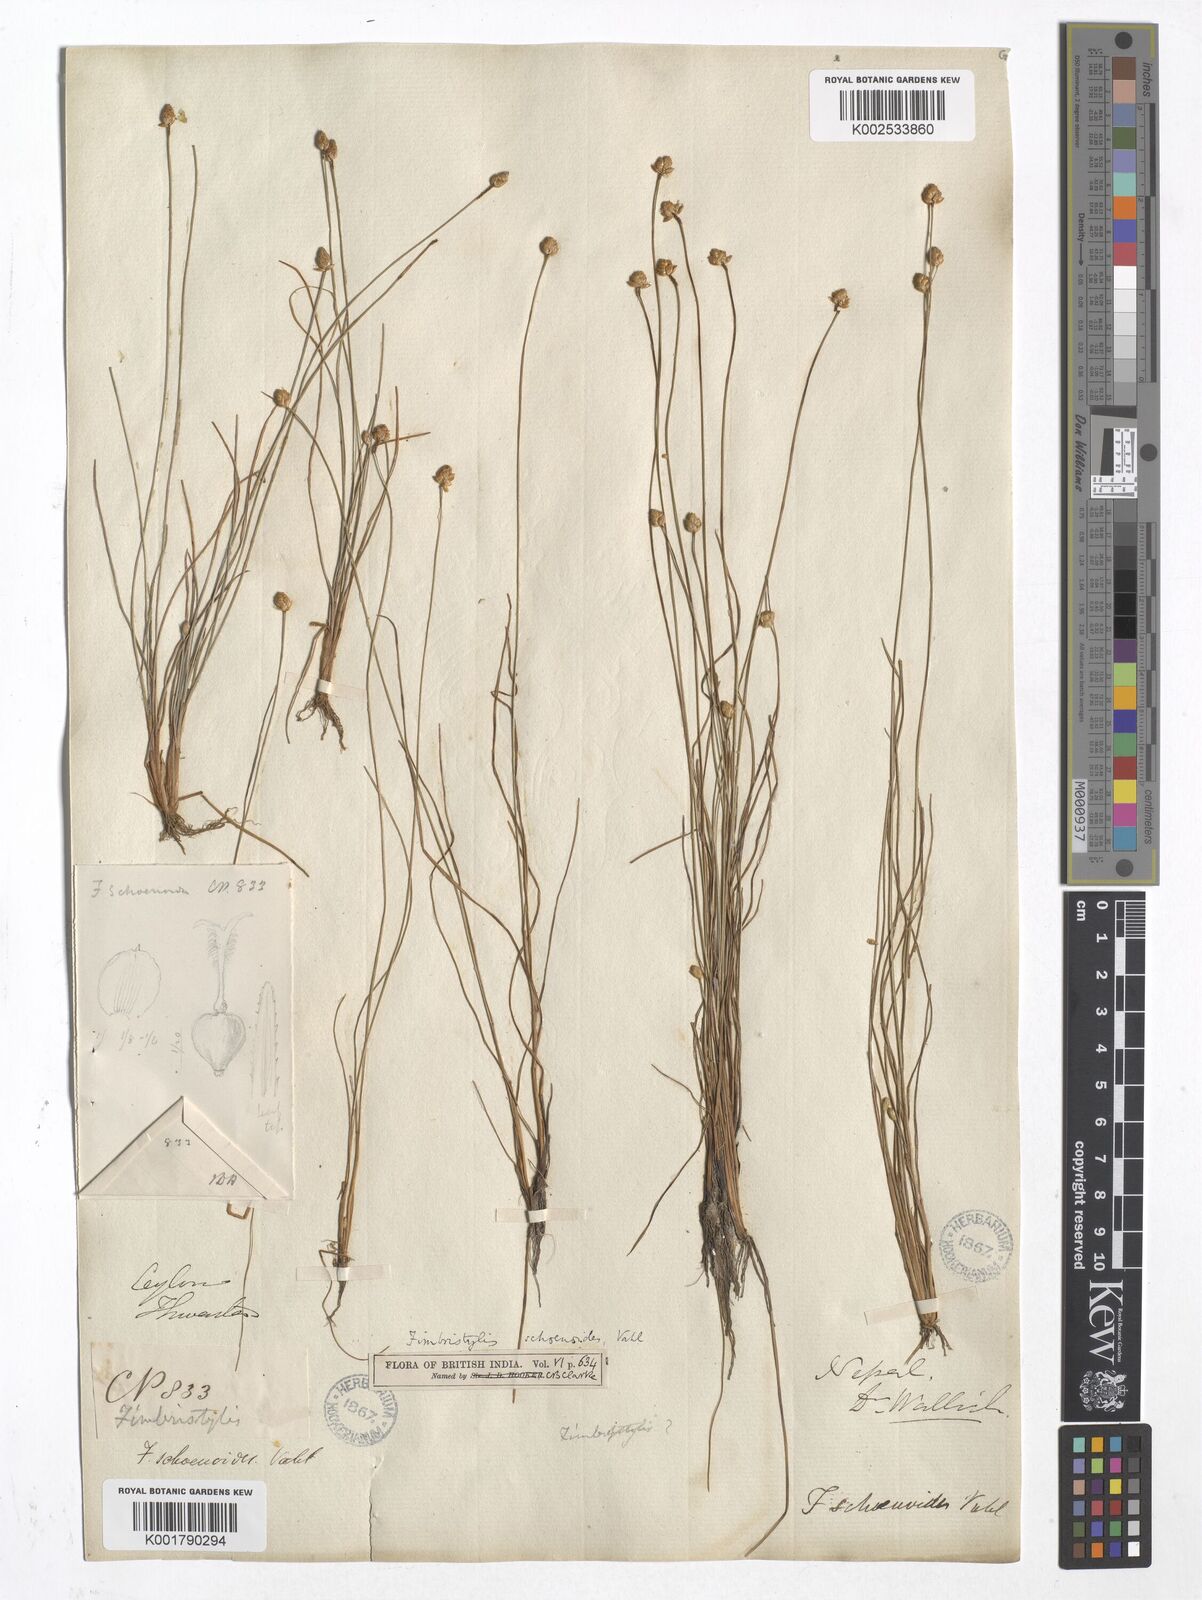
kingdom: Plantae
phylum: Tracheophyta
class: Liliopsida
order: Poales
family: Cyperaceae
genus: Fimbristylis
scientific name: Fimbristylis schoenoides
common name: Ditch fimbry
